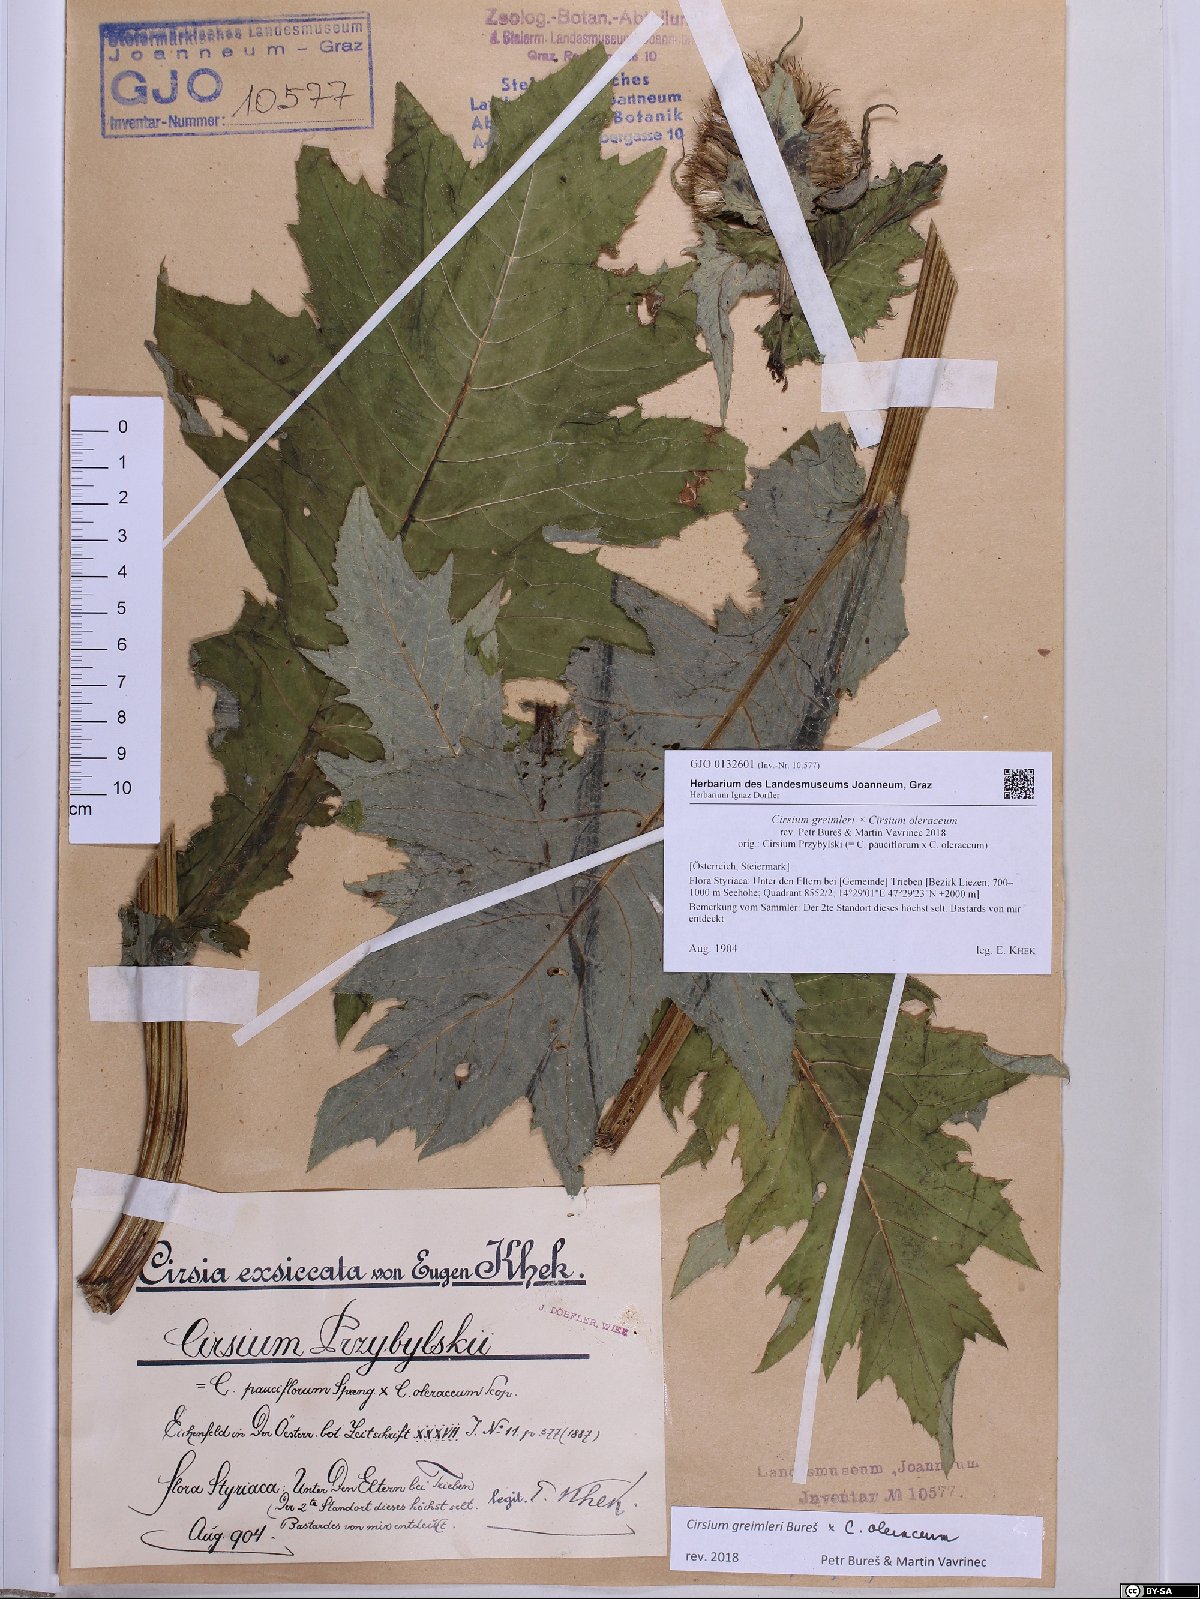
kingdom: Plantae
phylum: Tracheophyta
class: Magnoliopsida
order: Asterales
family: Asteraceae
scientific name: Asteraceae
